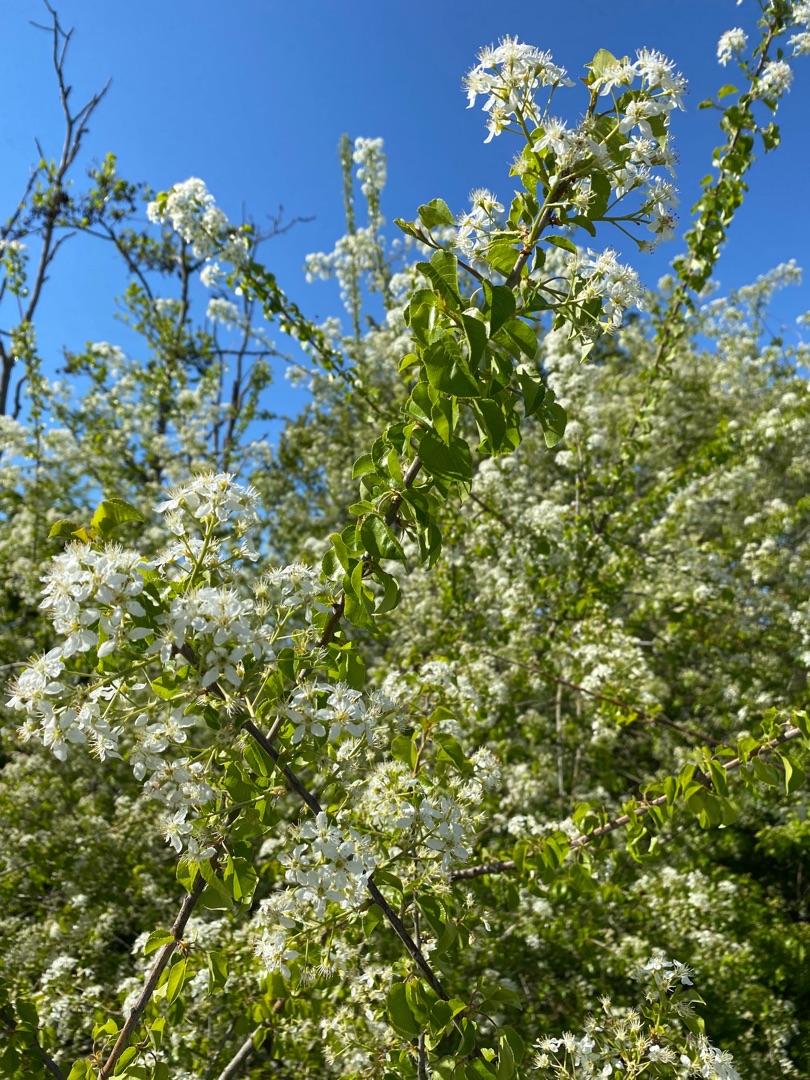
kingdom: Plantae
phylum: Tracheophyta
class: Magnoliopsida
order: Rosales
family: Rosaceae
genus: Prunus
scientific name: Prunus mahaleb
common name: Weichsel
